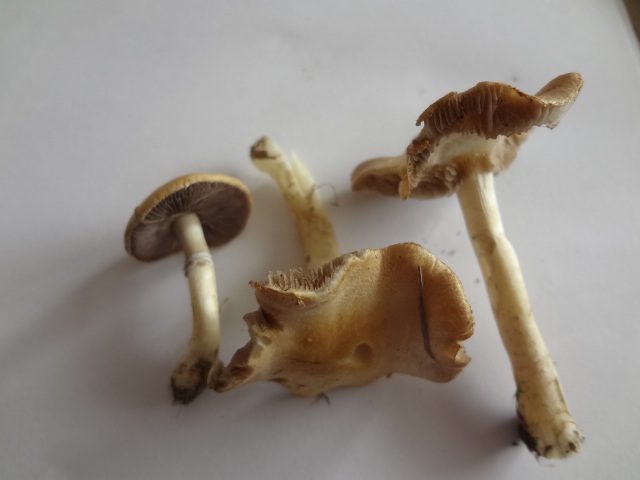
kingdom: Fungi
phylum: Basidiomycota
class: Agaricomycetes
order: Agaricales
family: Hymenogastraceae
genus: Psilocybe
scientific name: Psilocybe coronilla
